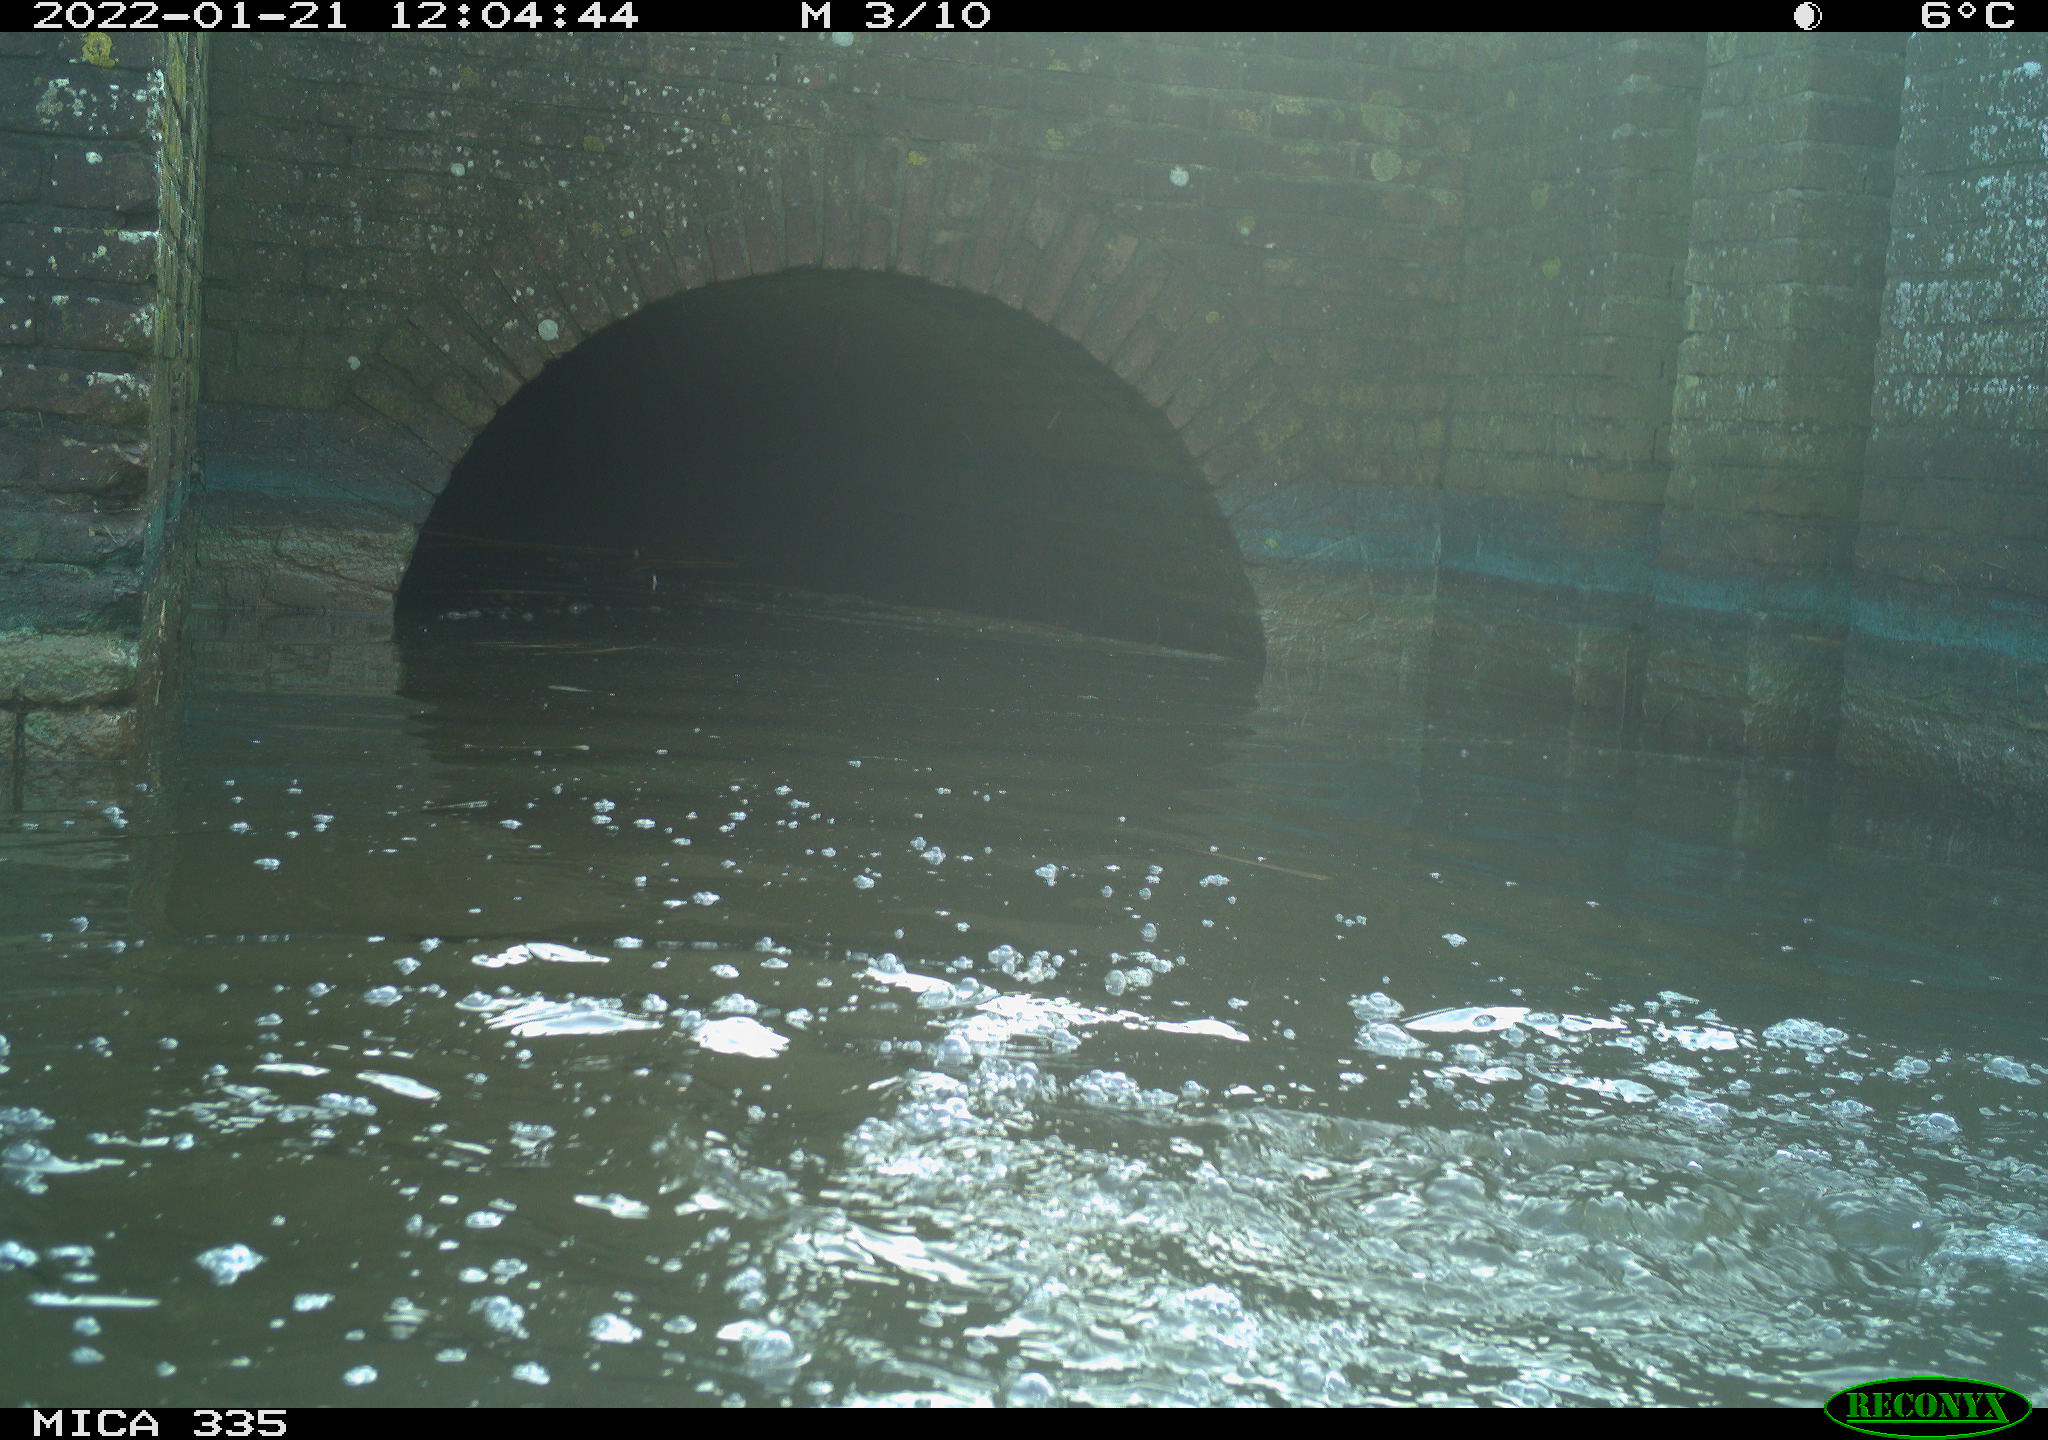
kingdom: Animalia
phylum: Chordata
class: Aves
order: Suliformes
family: Phalacrocoracidae
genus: Phalacrocorax
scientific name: Phalacrocorax carbo
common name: Great cormorant
